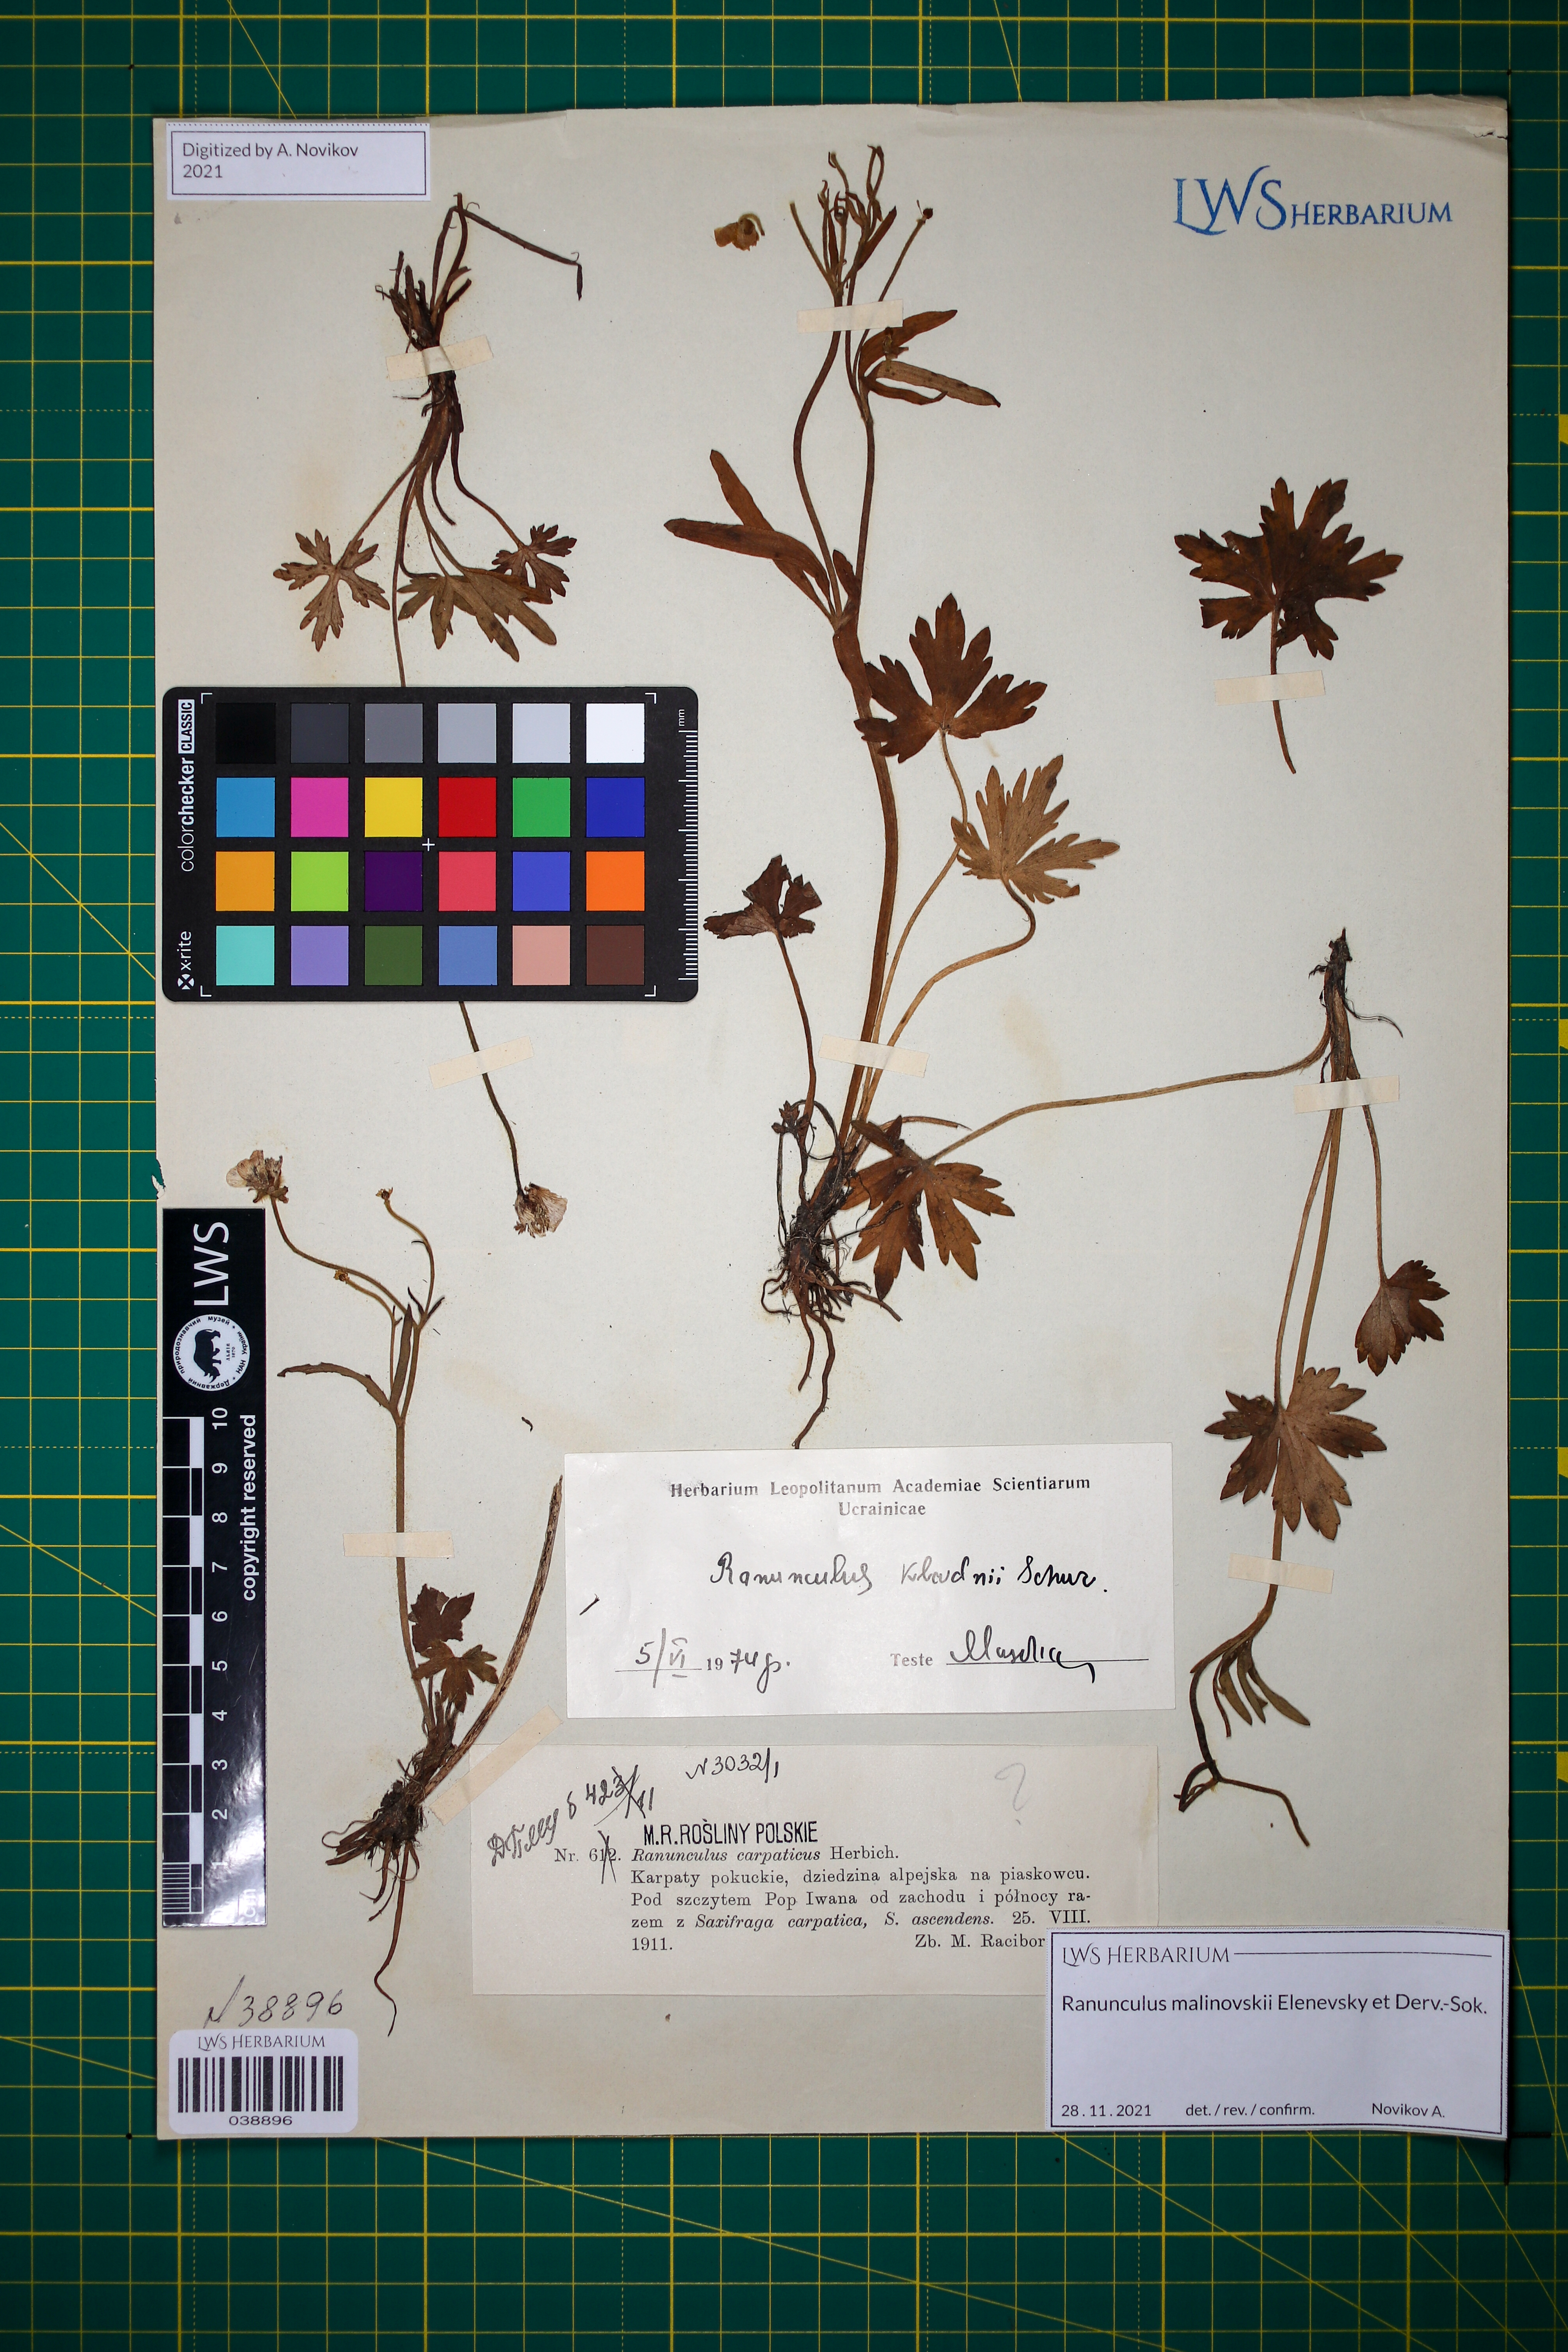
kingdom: Plantae
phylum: Tracheophyta
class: Magnoliopsida
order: Ranunculales
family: Ranunculaceae
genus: Ranunculus
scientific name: Ranunculus malinovskii
